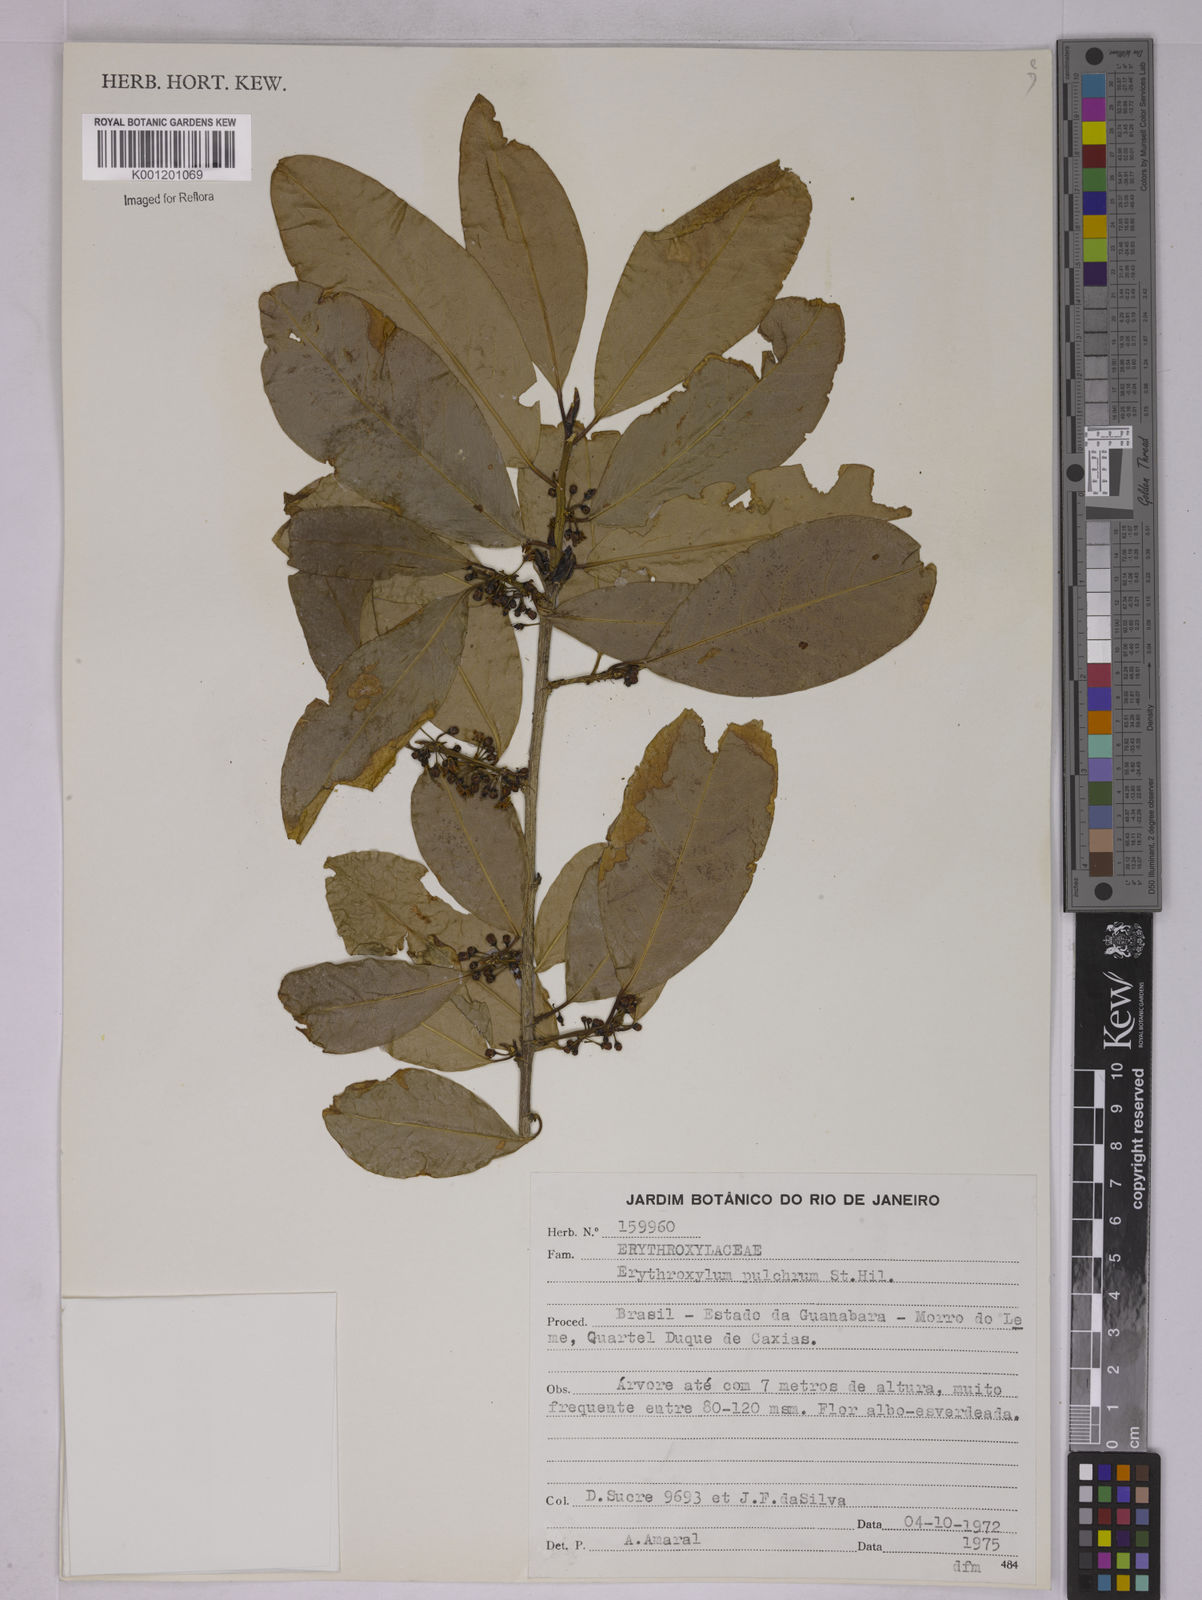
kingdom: Plantae
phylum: Tracheophyta
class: Magnoliopsida
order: Malpighiales
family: Erythroxylaceae
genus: Erythroxylum
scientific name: Erythroxylum pulchrum
